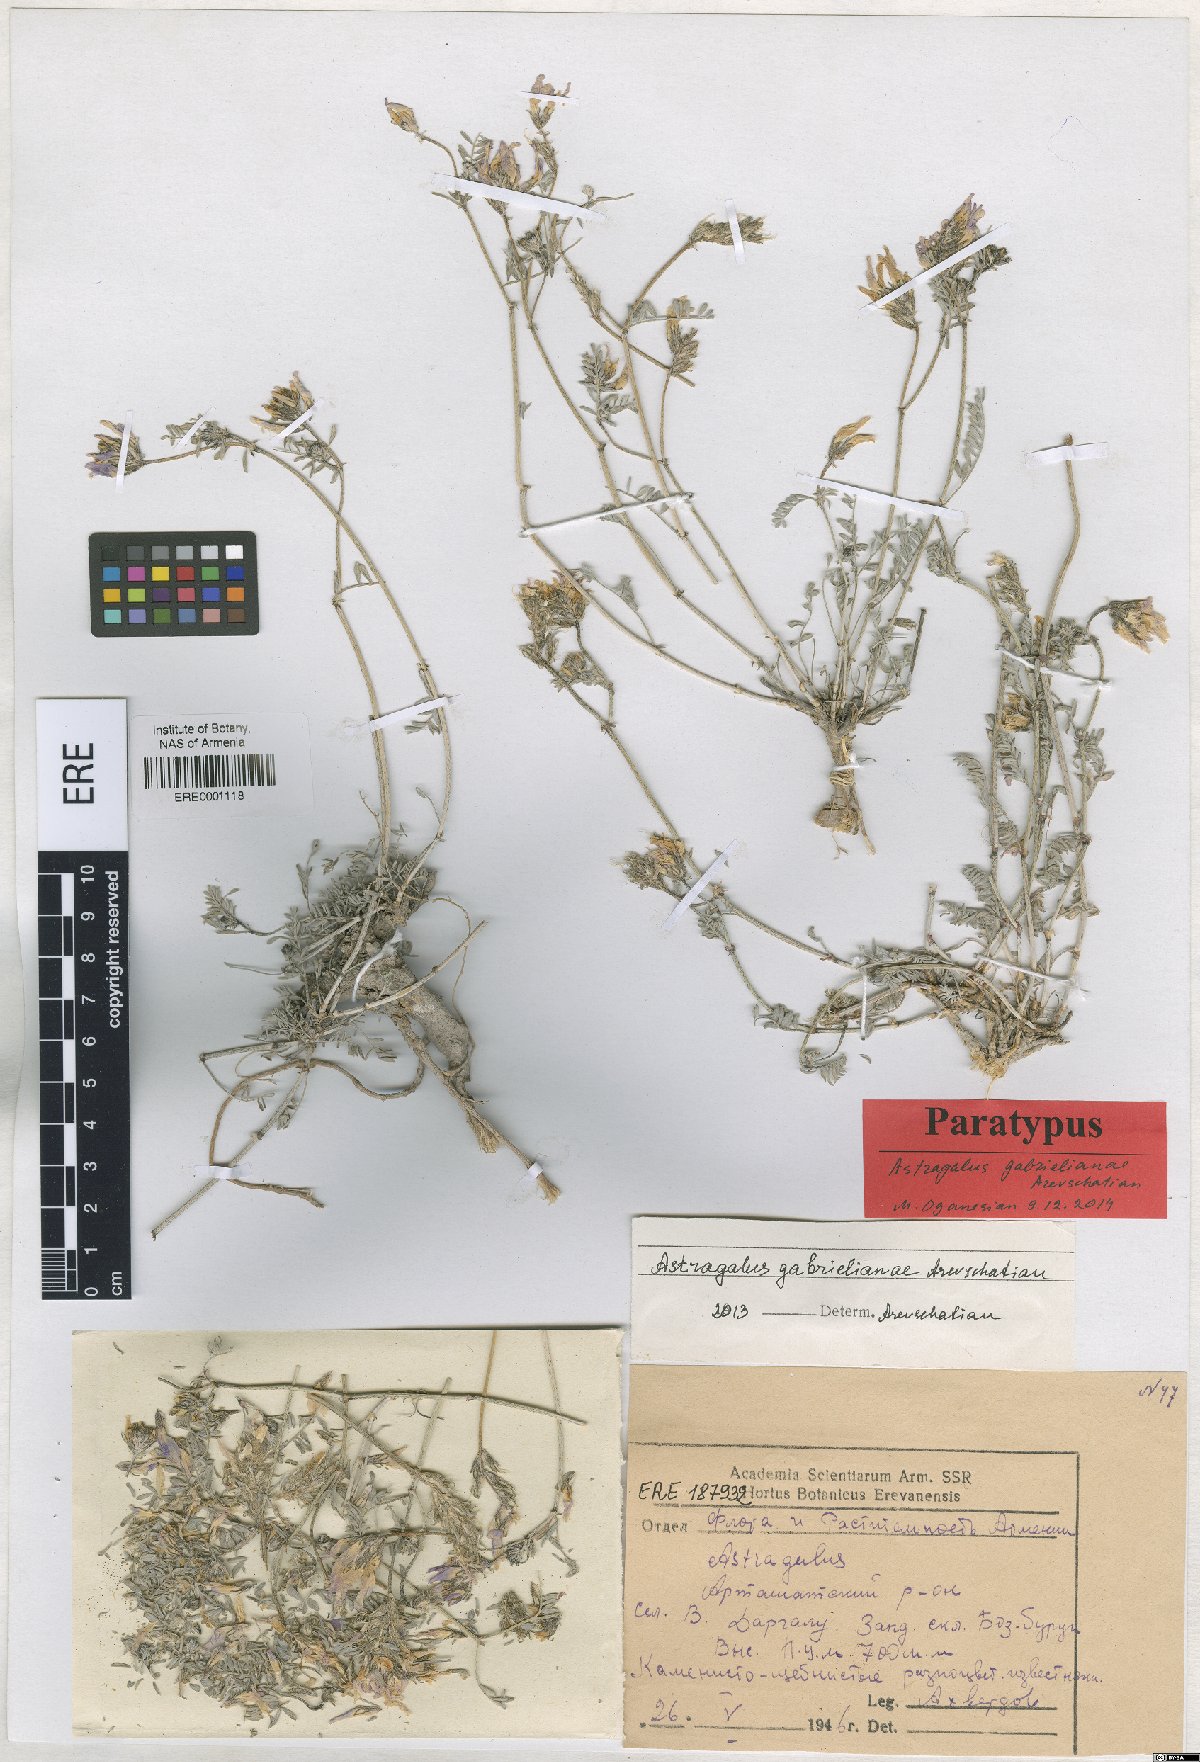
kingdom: Plantae
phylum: Tracheophyta
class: Magnoliopsida
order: Fabales
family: Fabaceae
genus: Astragalus
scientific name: Astragalus gabrelianae
